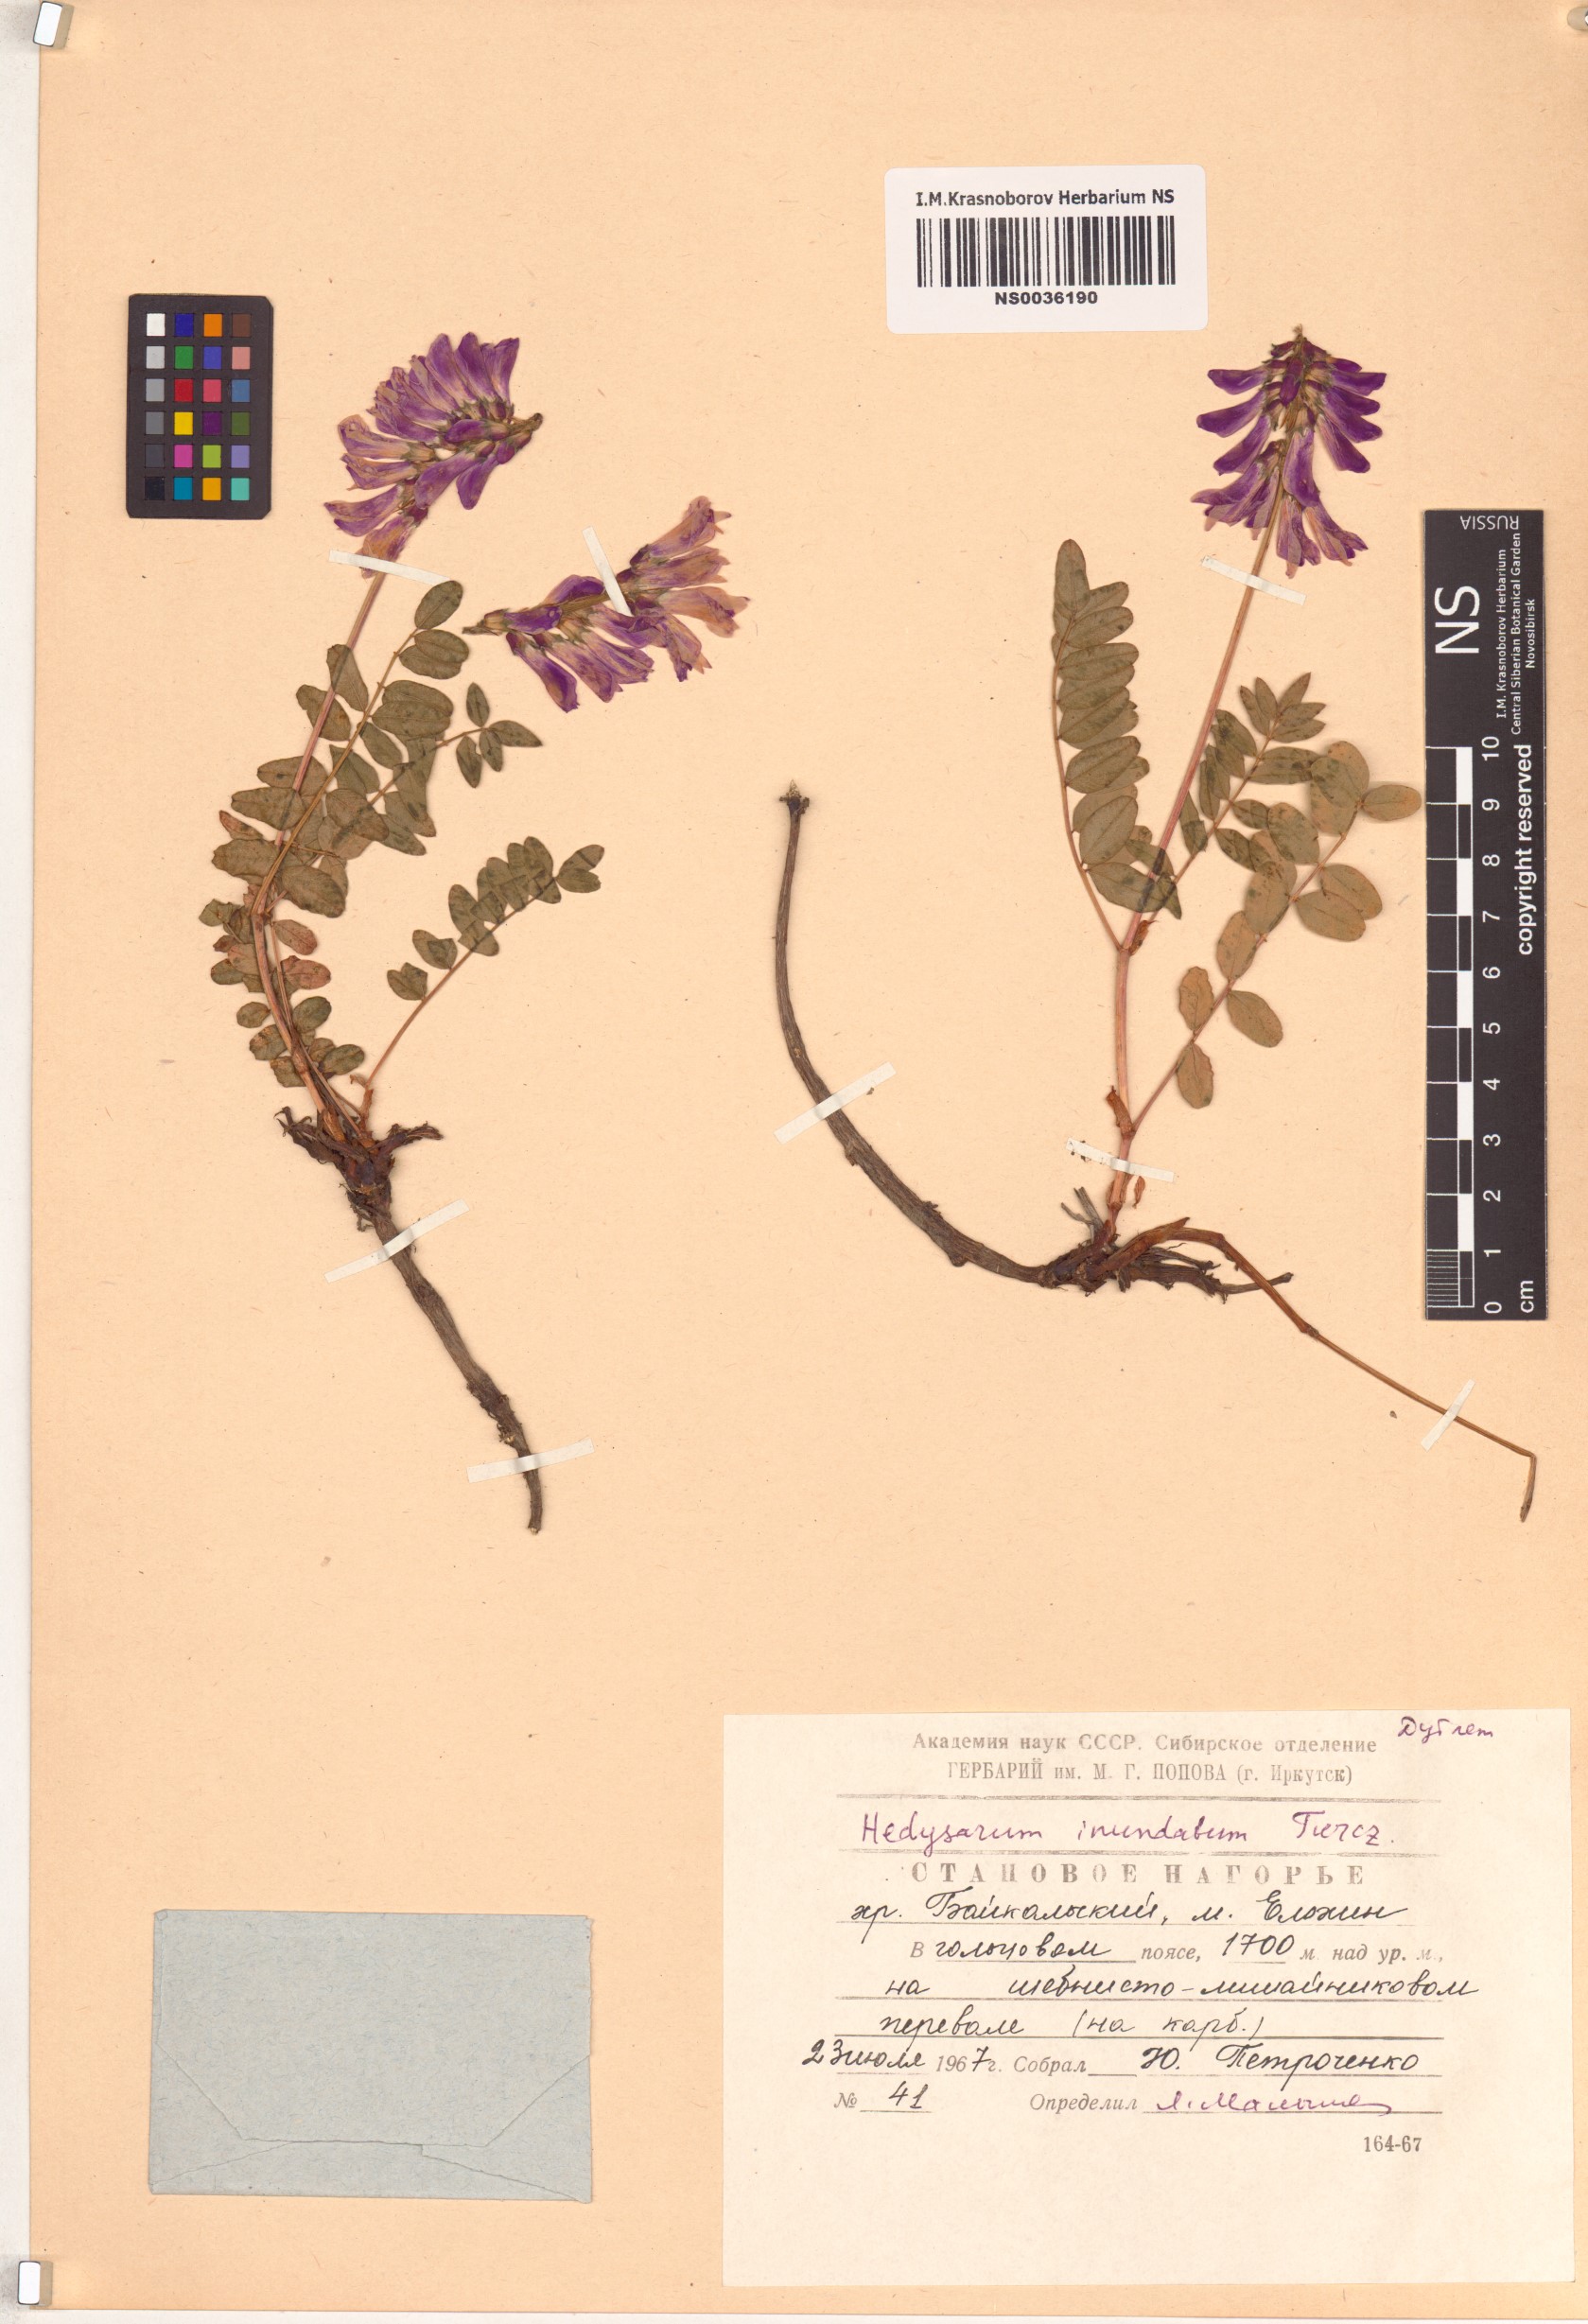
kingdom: Plantae
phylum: Tracheophyta
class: Magnoliopsida
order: Fabales
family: Fabaceae
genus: Hedysarum
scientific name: Hedysarum inundatum
